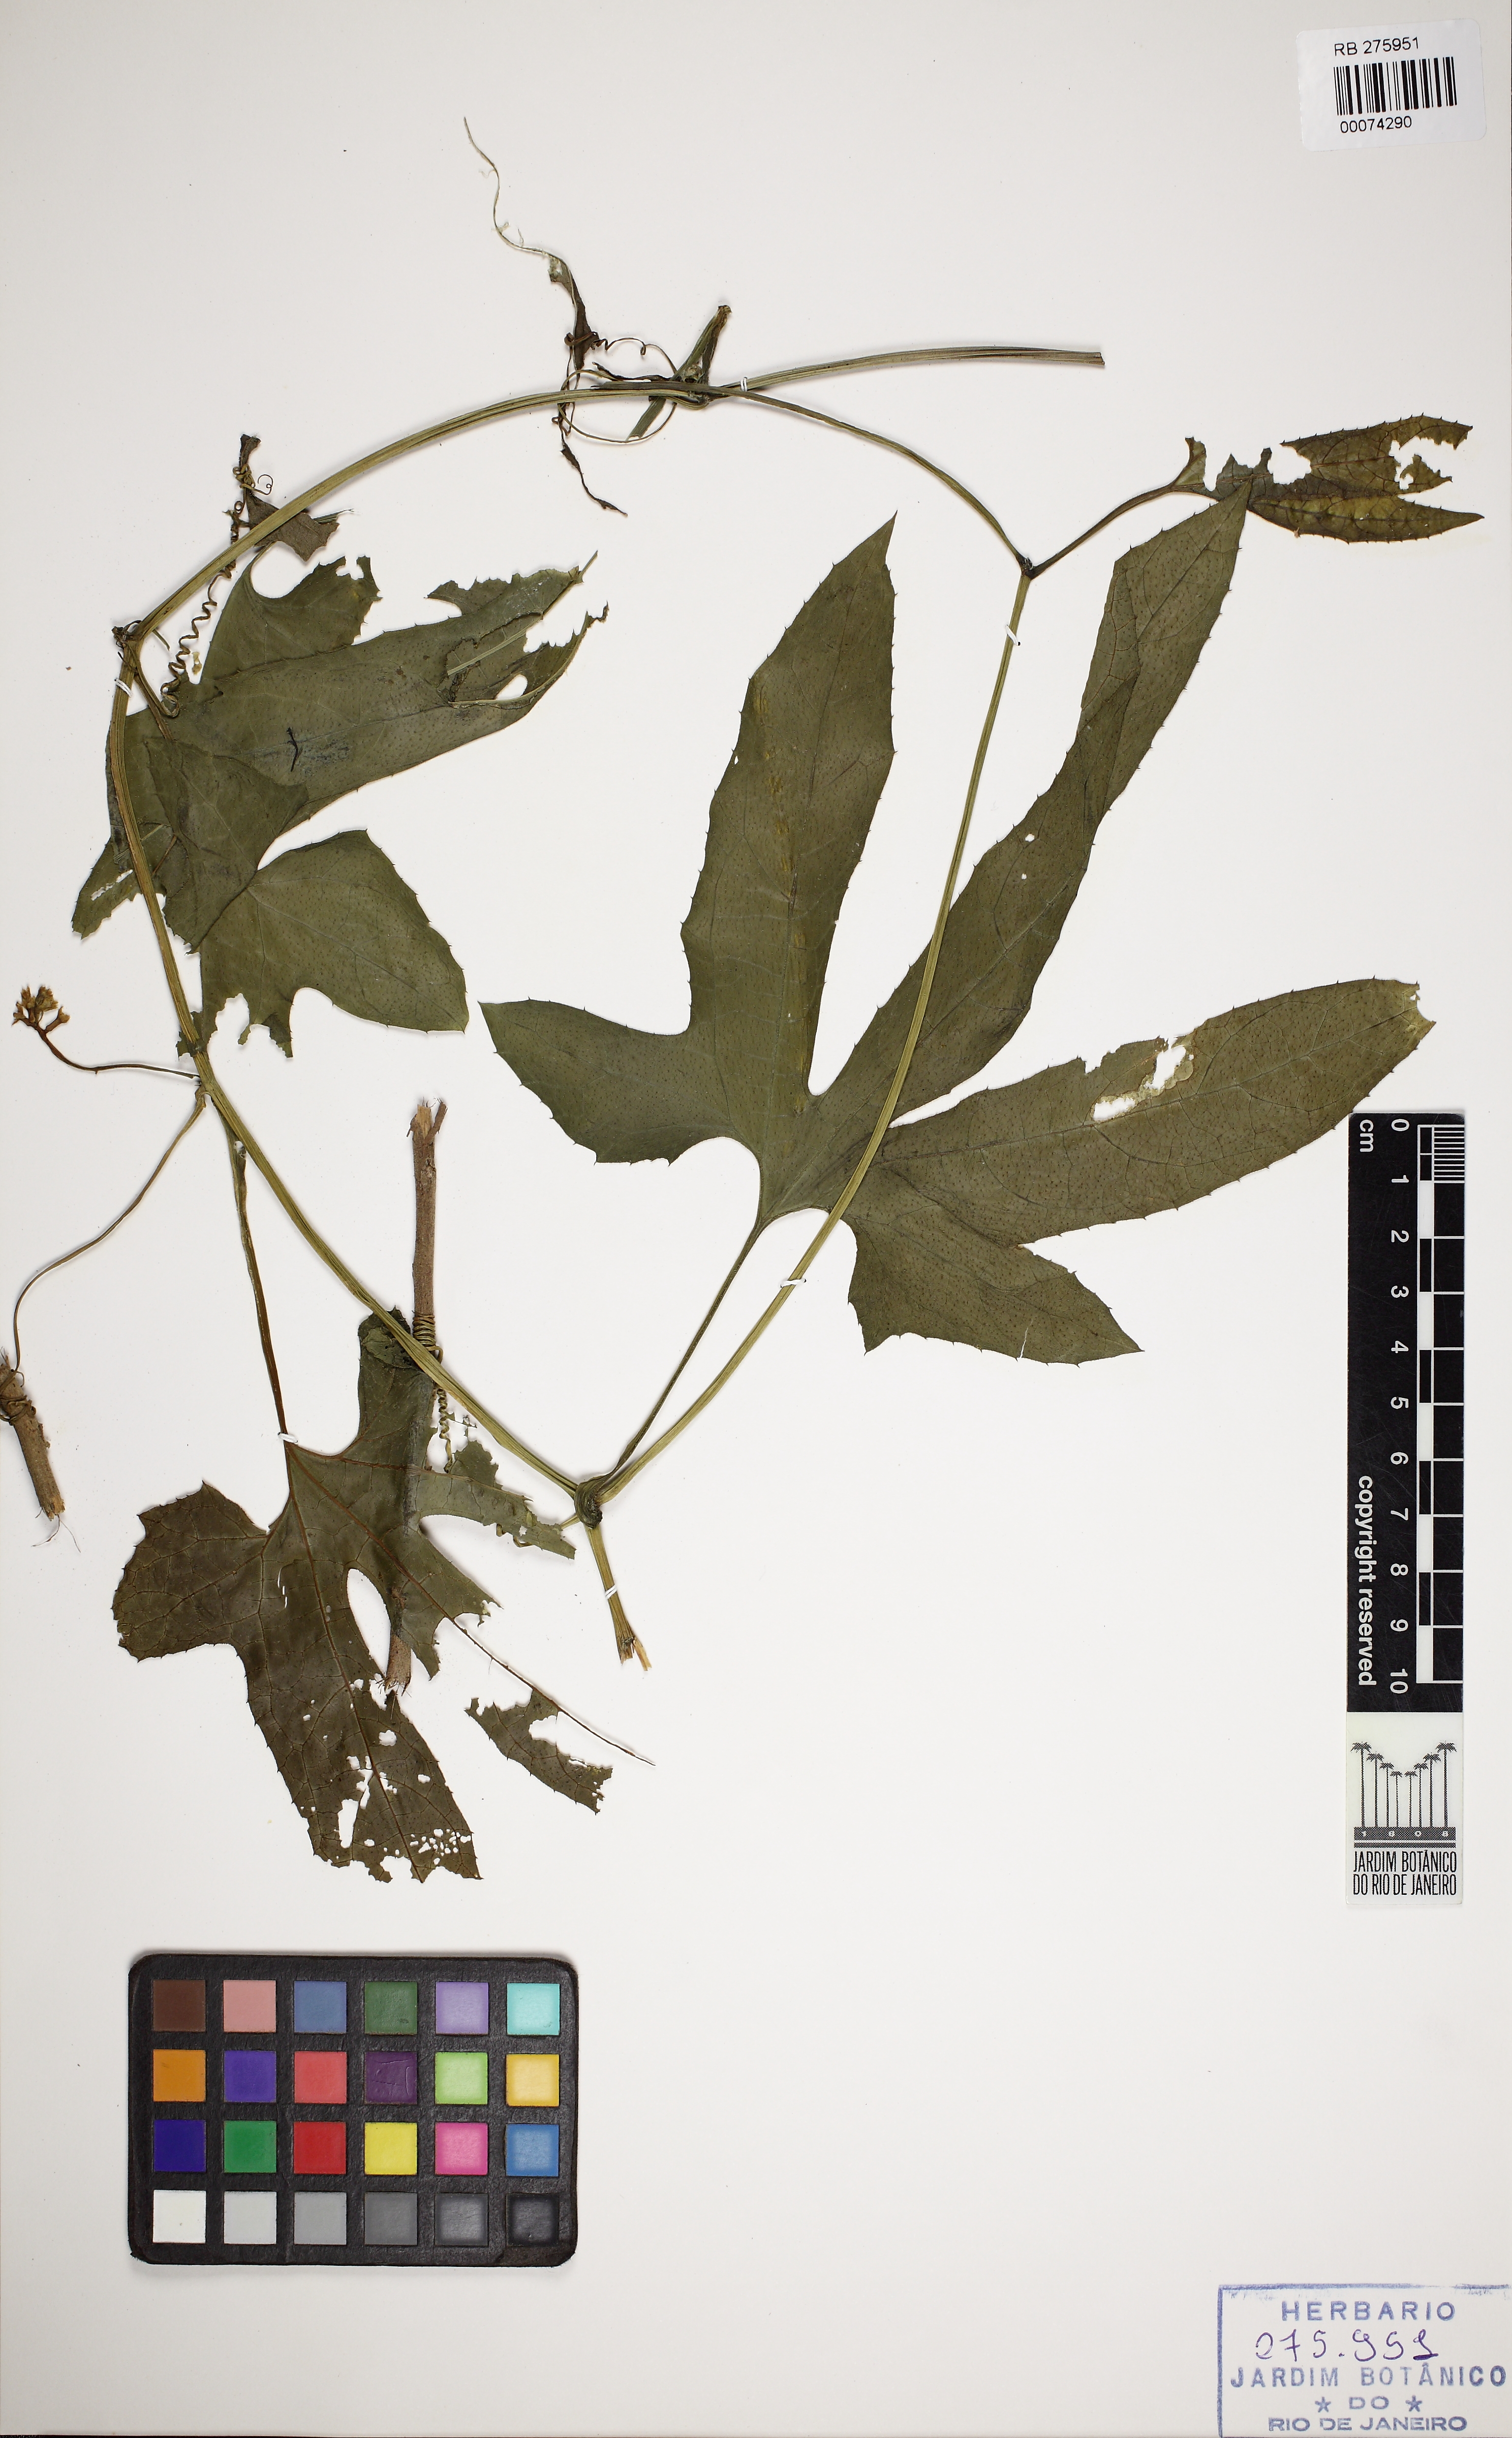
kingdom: Plantae
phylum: Tracheophyta
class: Magnoliopsida
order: Cucurbitales
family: Cucurbitaceae
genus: Wilbrandia
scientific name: Wilbrandia verticillata
